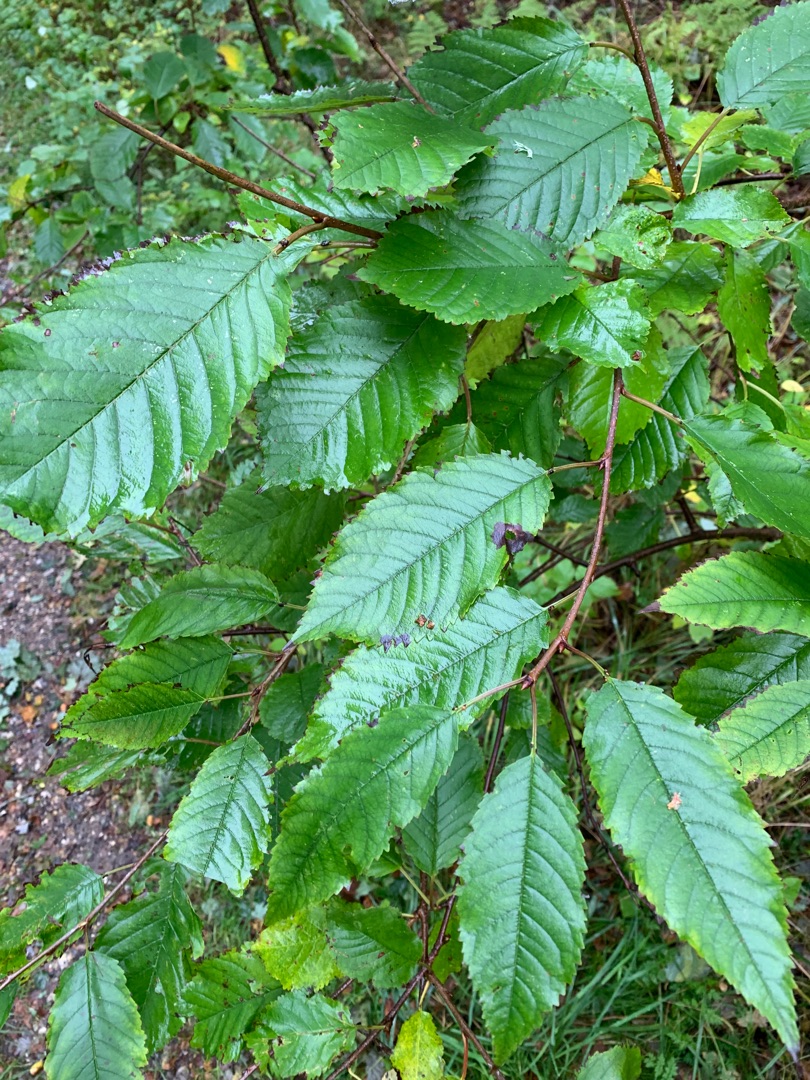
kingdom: Plantae
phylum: Tracheophyta
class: Magnoliopsida
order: Rosales
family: Rosaceae
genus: Prunus
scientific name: Prunus avium
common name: Fugle-kirsebær
